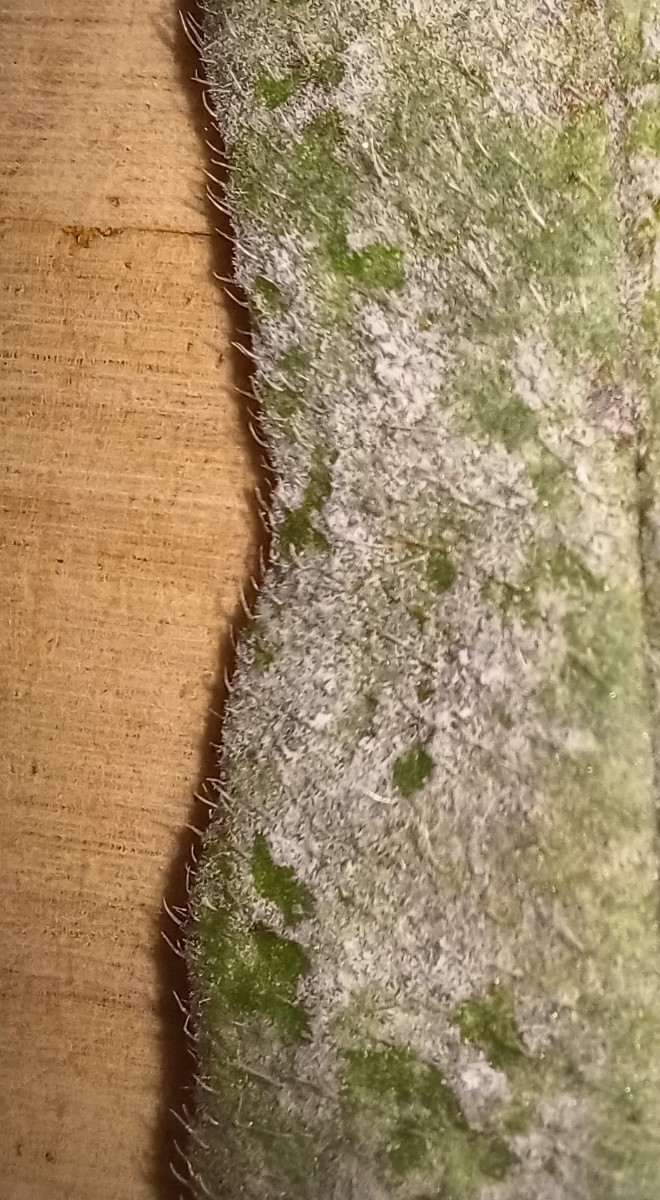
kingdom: Fungi
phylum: Ascomycota
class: Leotiomycetes
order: Helotiales
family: Erysiphaceae
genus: Golovinomyces
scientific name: Golovinomyces asperifolii
